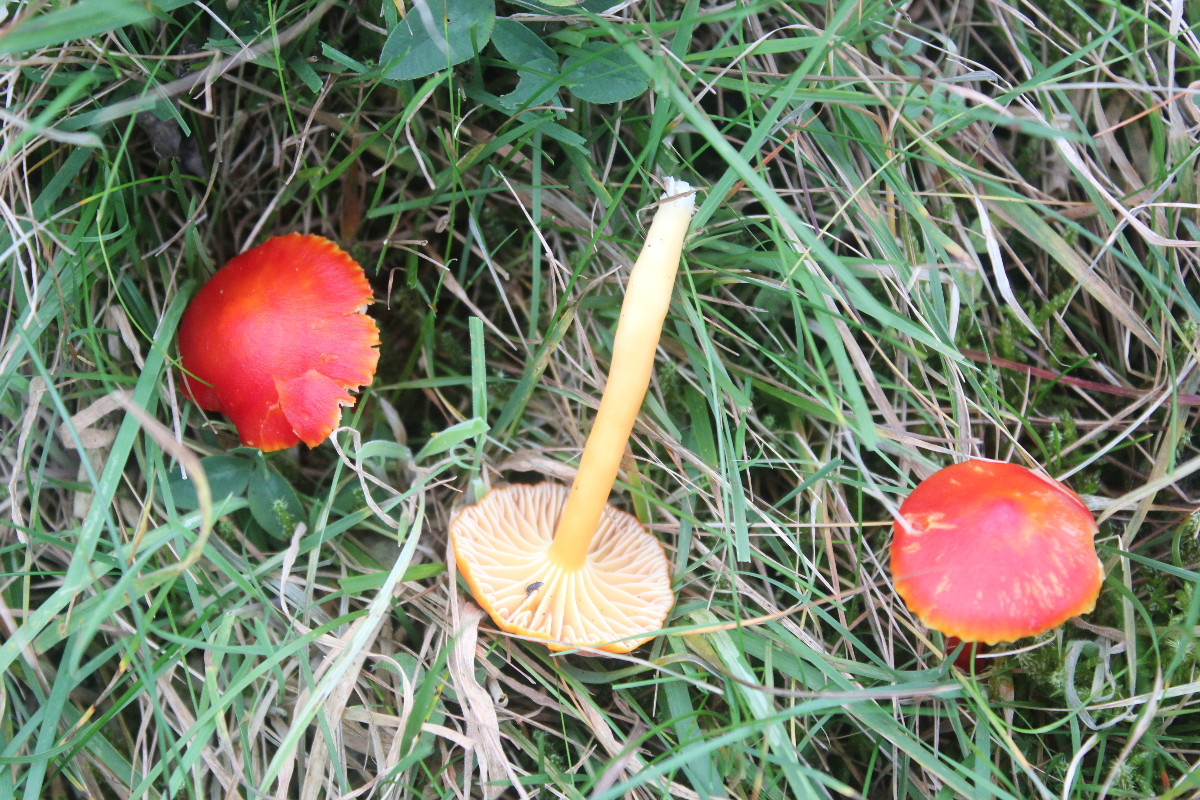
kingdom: Fungi
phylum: Basidiomycota
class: Agaricomycetes
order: Agaricales
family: Hygrophoraceae
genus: Hygrocybe
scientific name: Hygrocybe coccinea
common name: cinnober-vokshat
